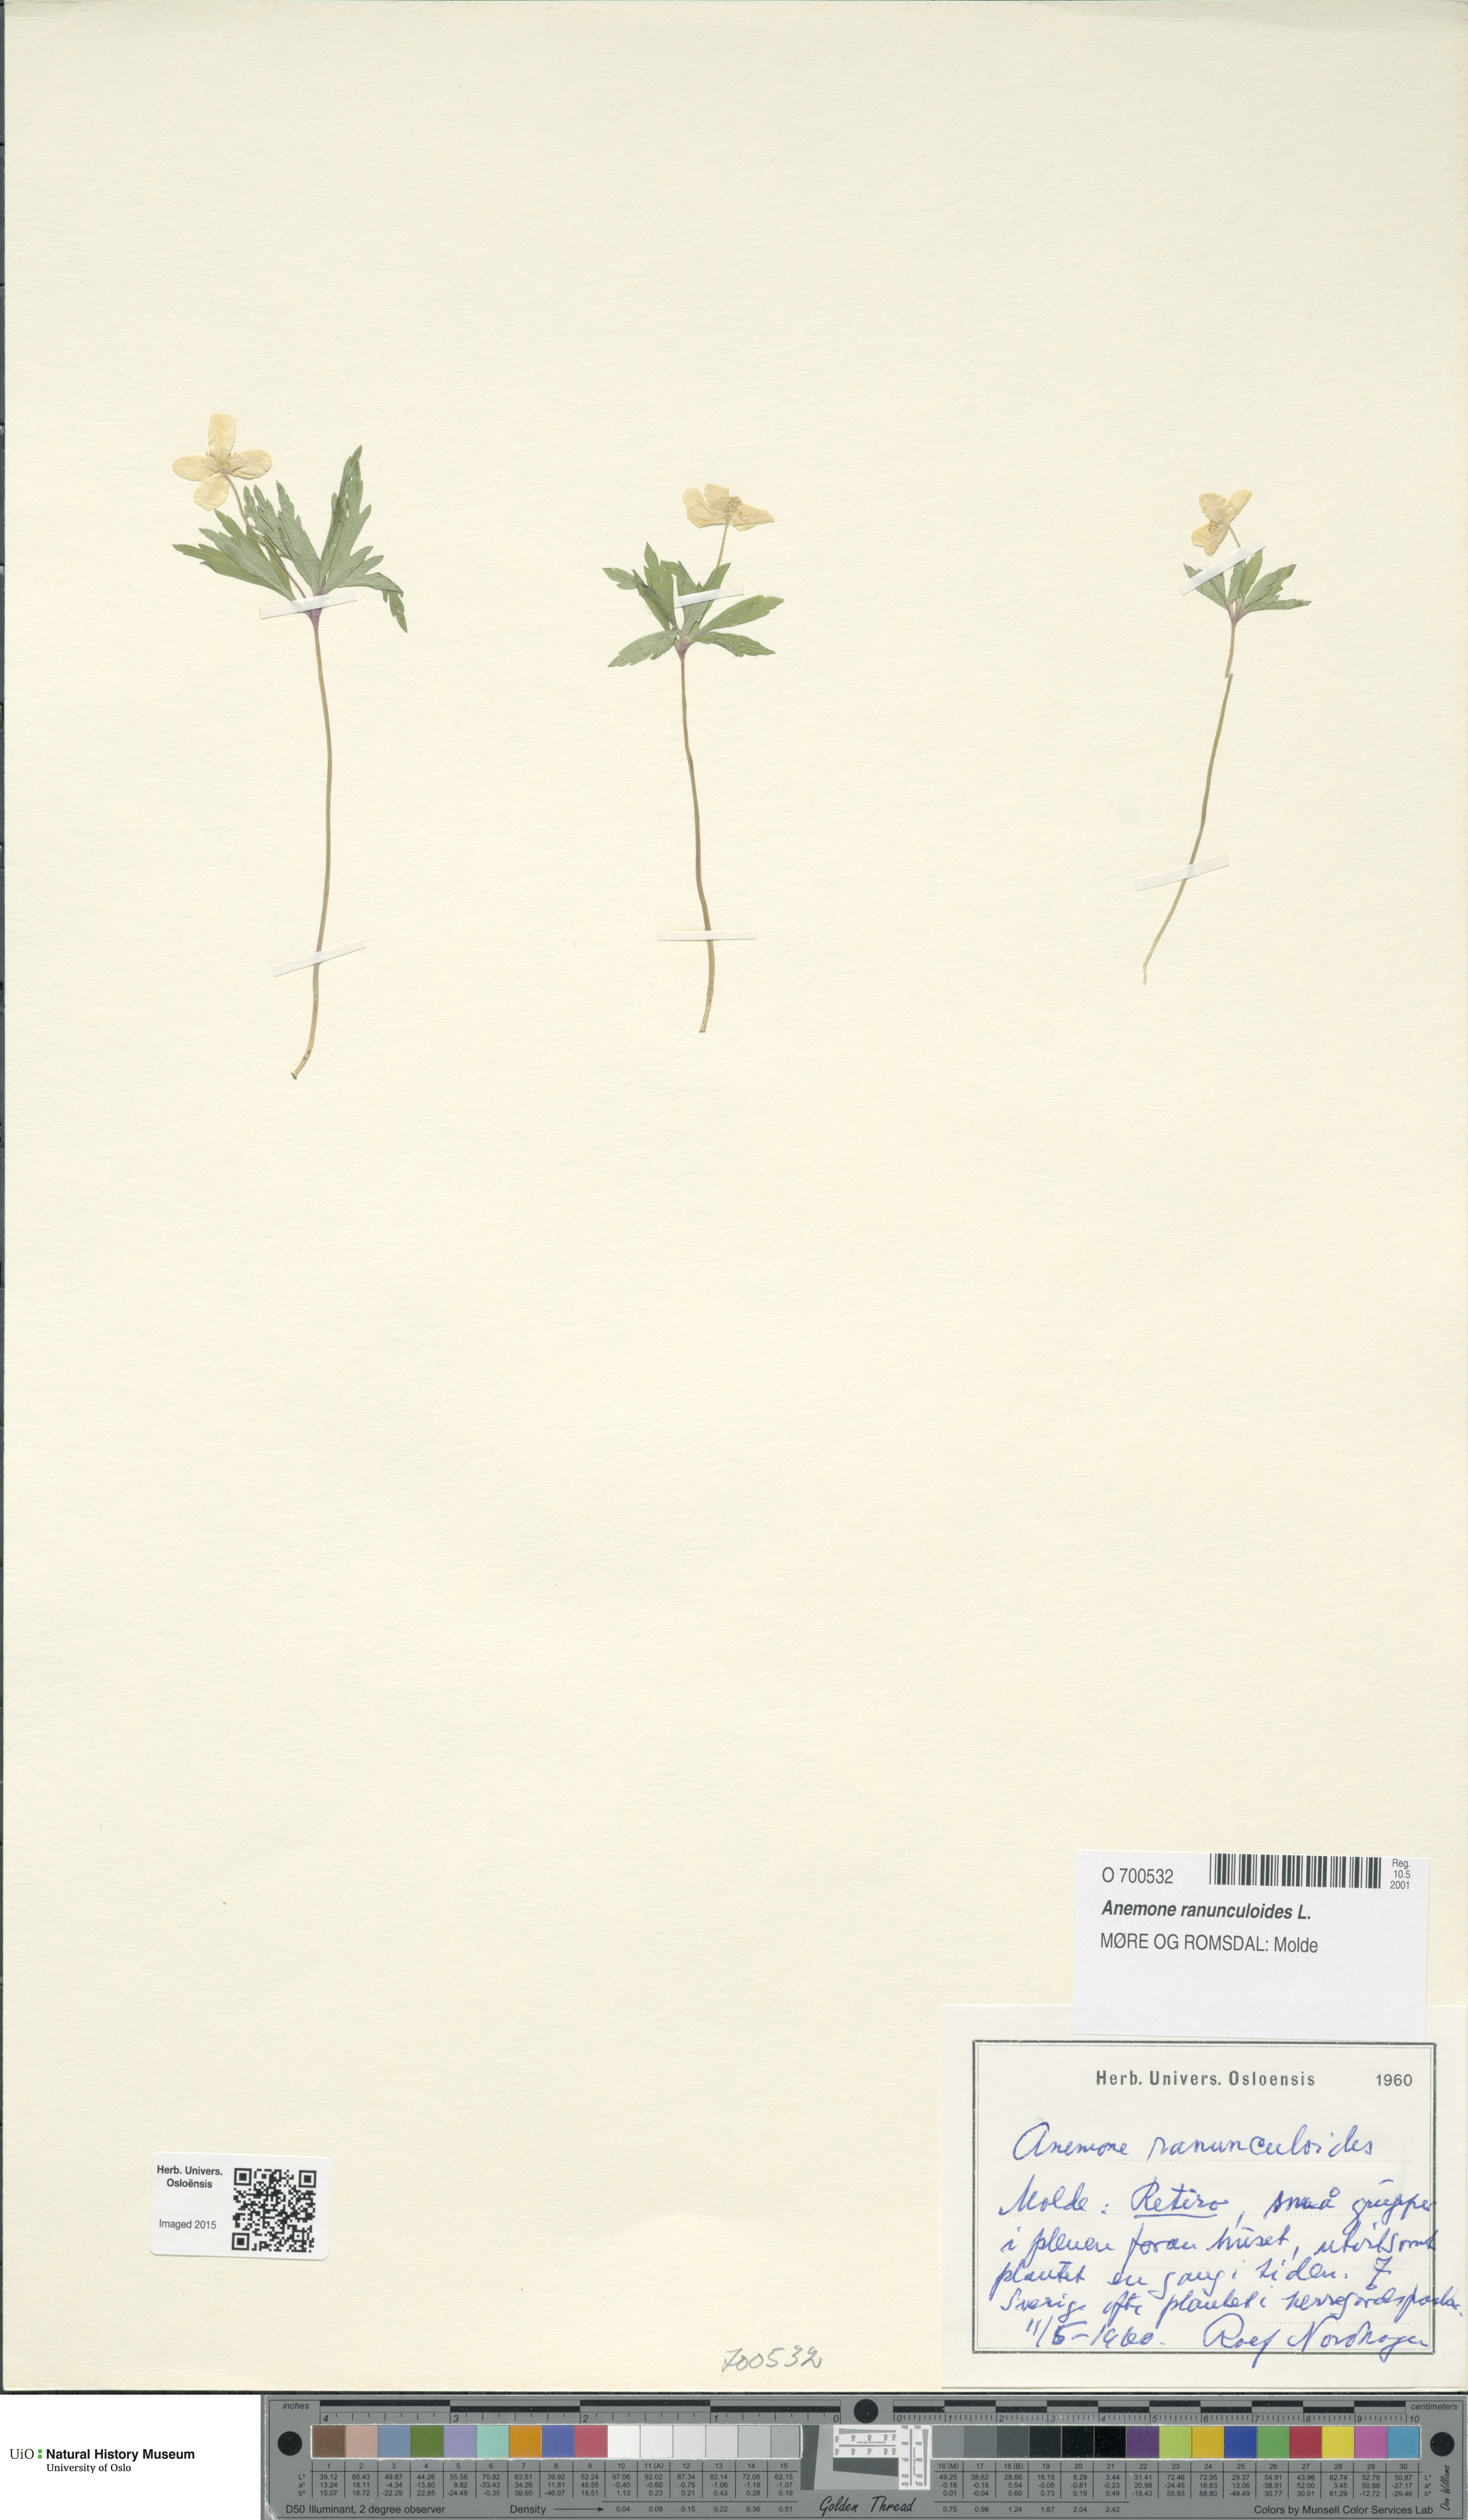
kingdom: Plantae
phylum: Tracheophyta
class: Magnoliopsida
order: Ranunculales
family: Ranunculaceae
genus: Anemone
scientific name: Anemone ranunculoides
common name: Yellow anemone
